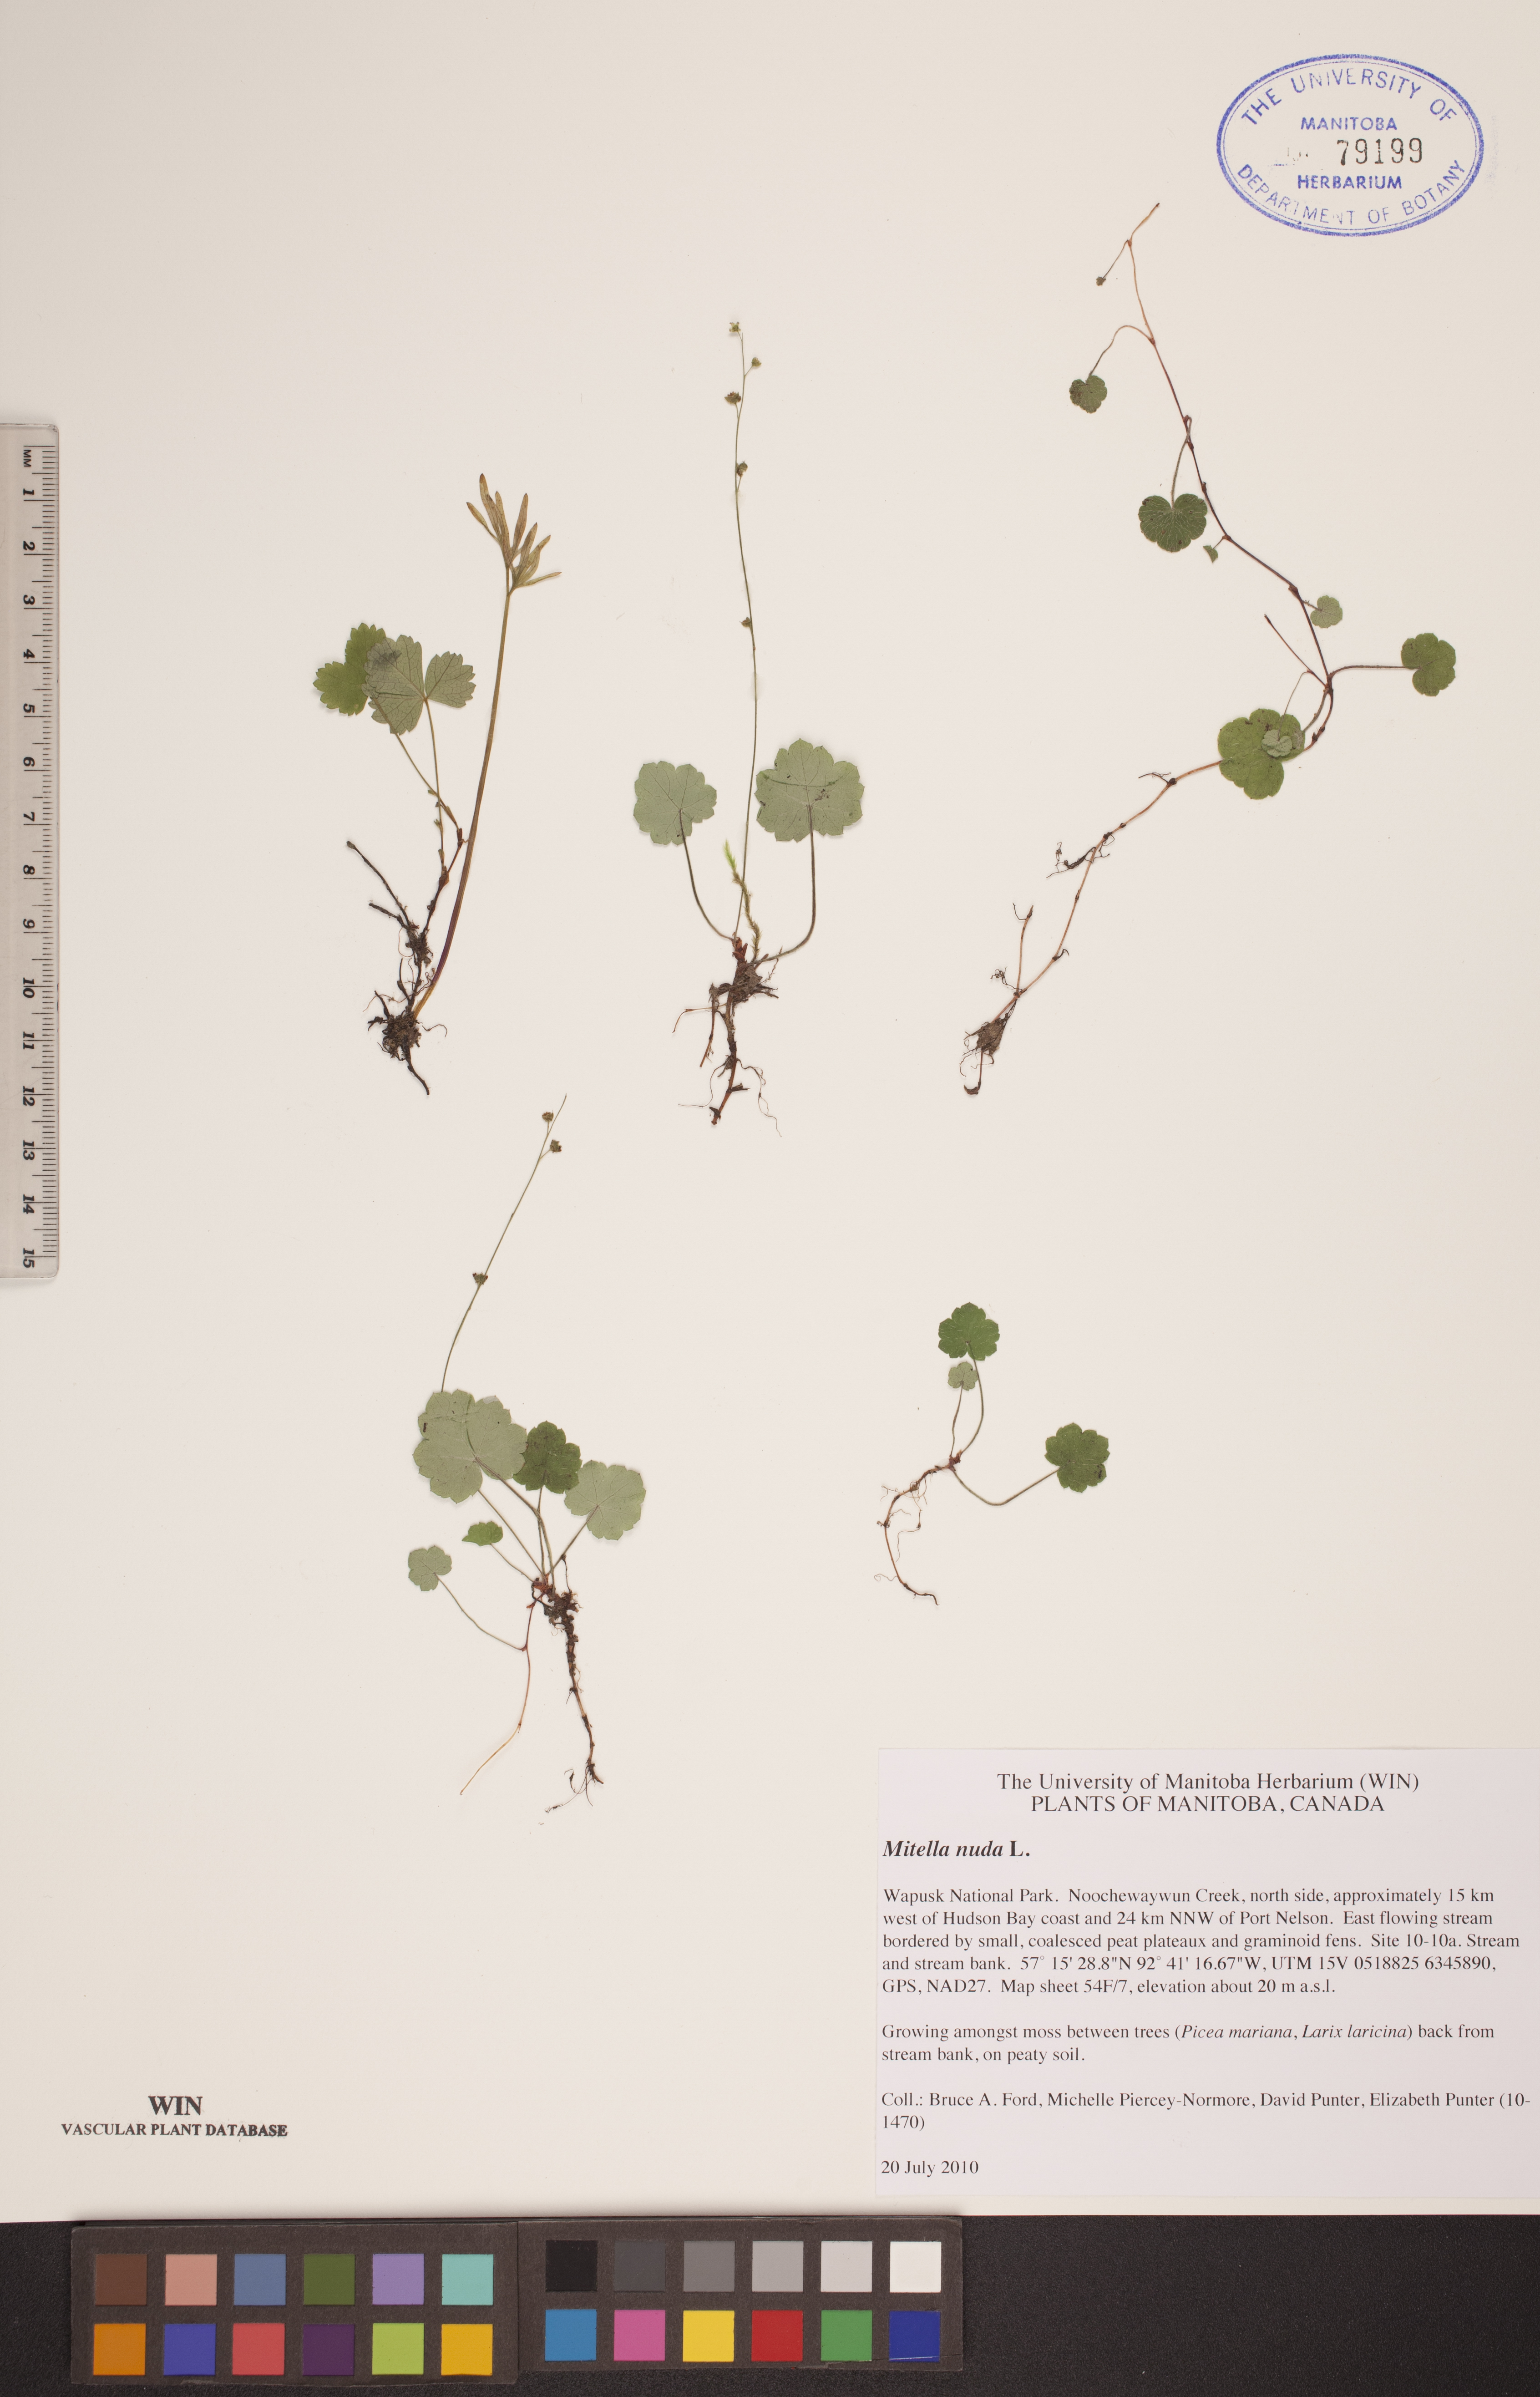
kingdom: Plantae
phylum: Tracheophyta
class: Magnoliopsida
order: Saxifragales
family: Saxifragaceae
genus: Mitella
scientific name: Mitella nuda
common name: Bare-stemmed bishop's-cap
